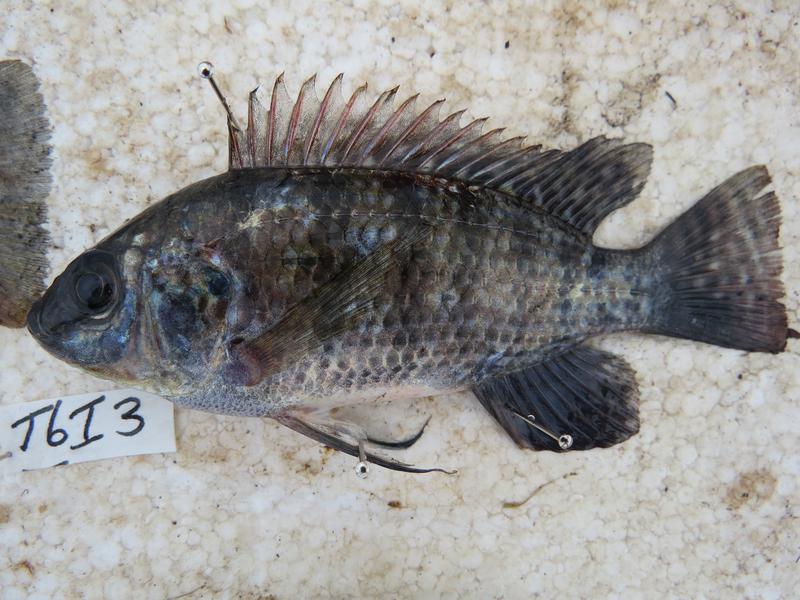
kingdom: Animalia
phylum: Chordata
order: Perciformes
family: Cichlidae
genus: Oreochromis
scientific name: Oreochromis leucostictus
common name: Blue spotted tilapia
